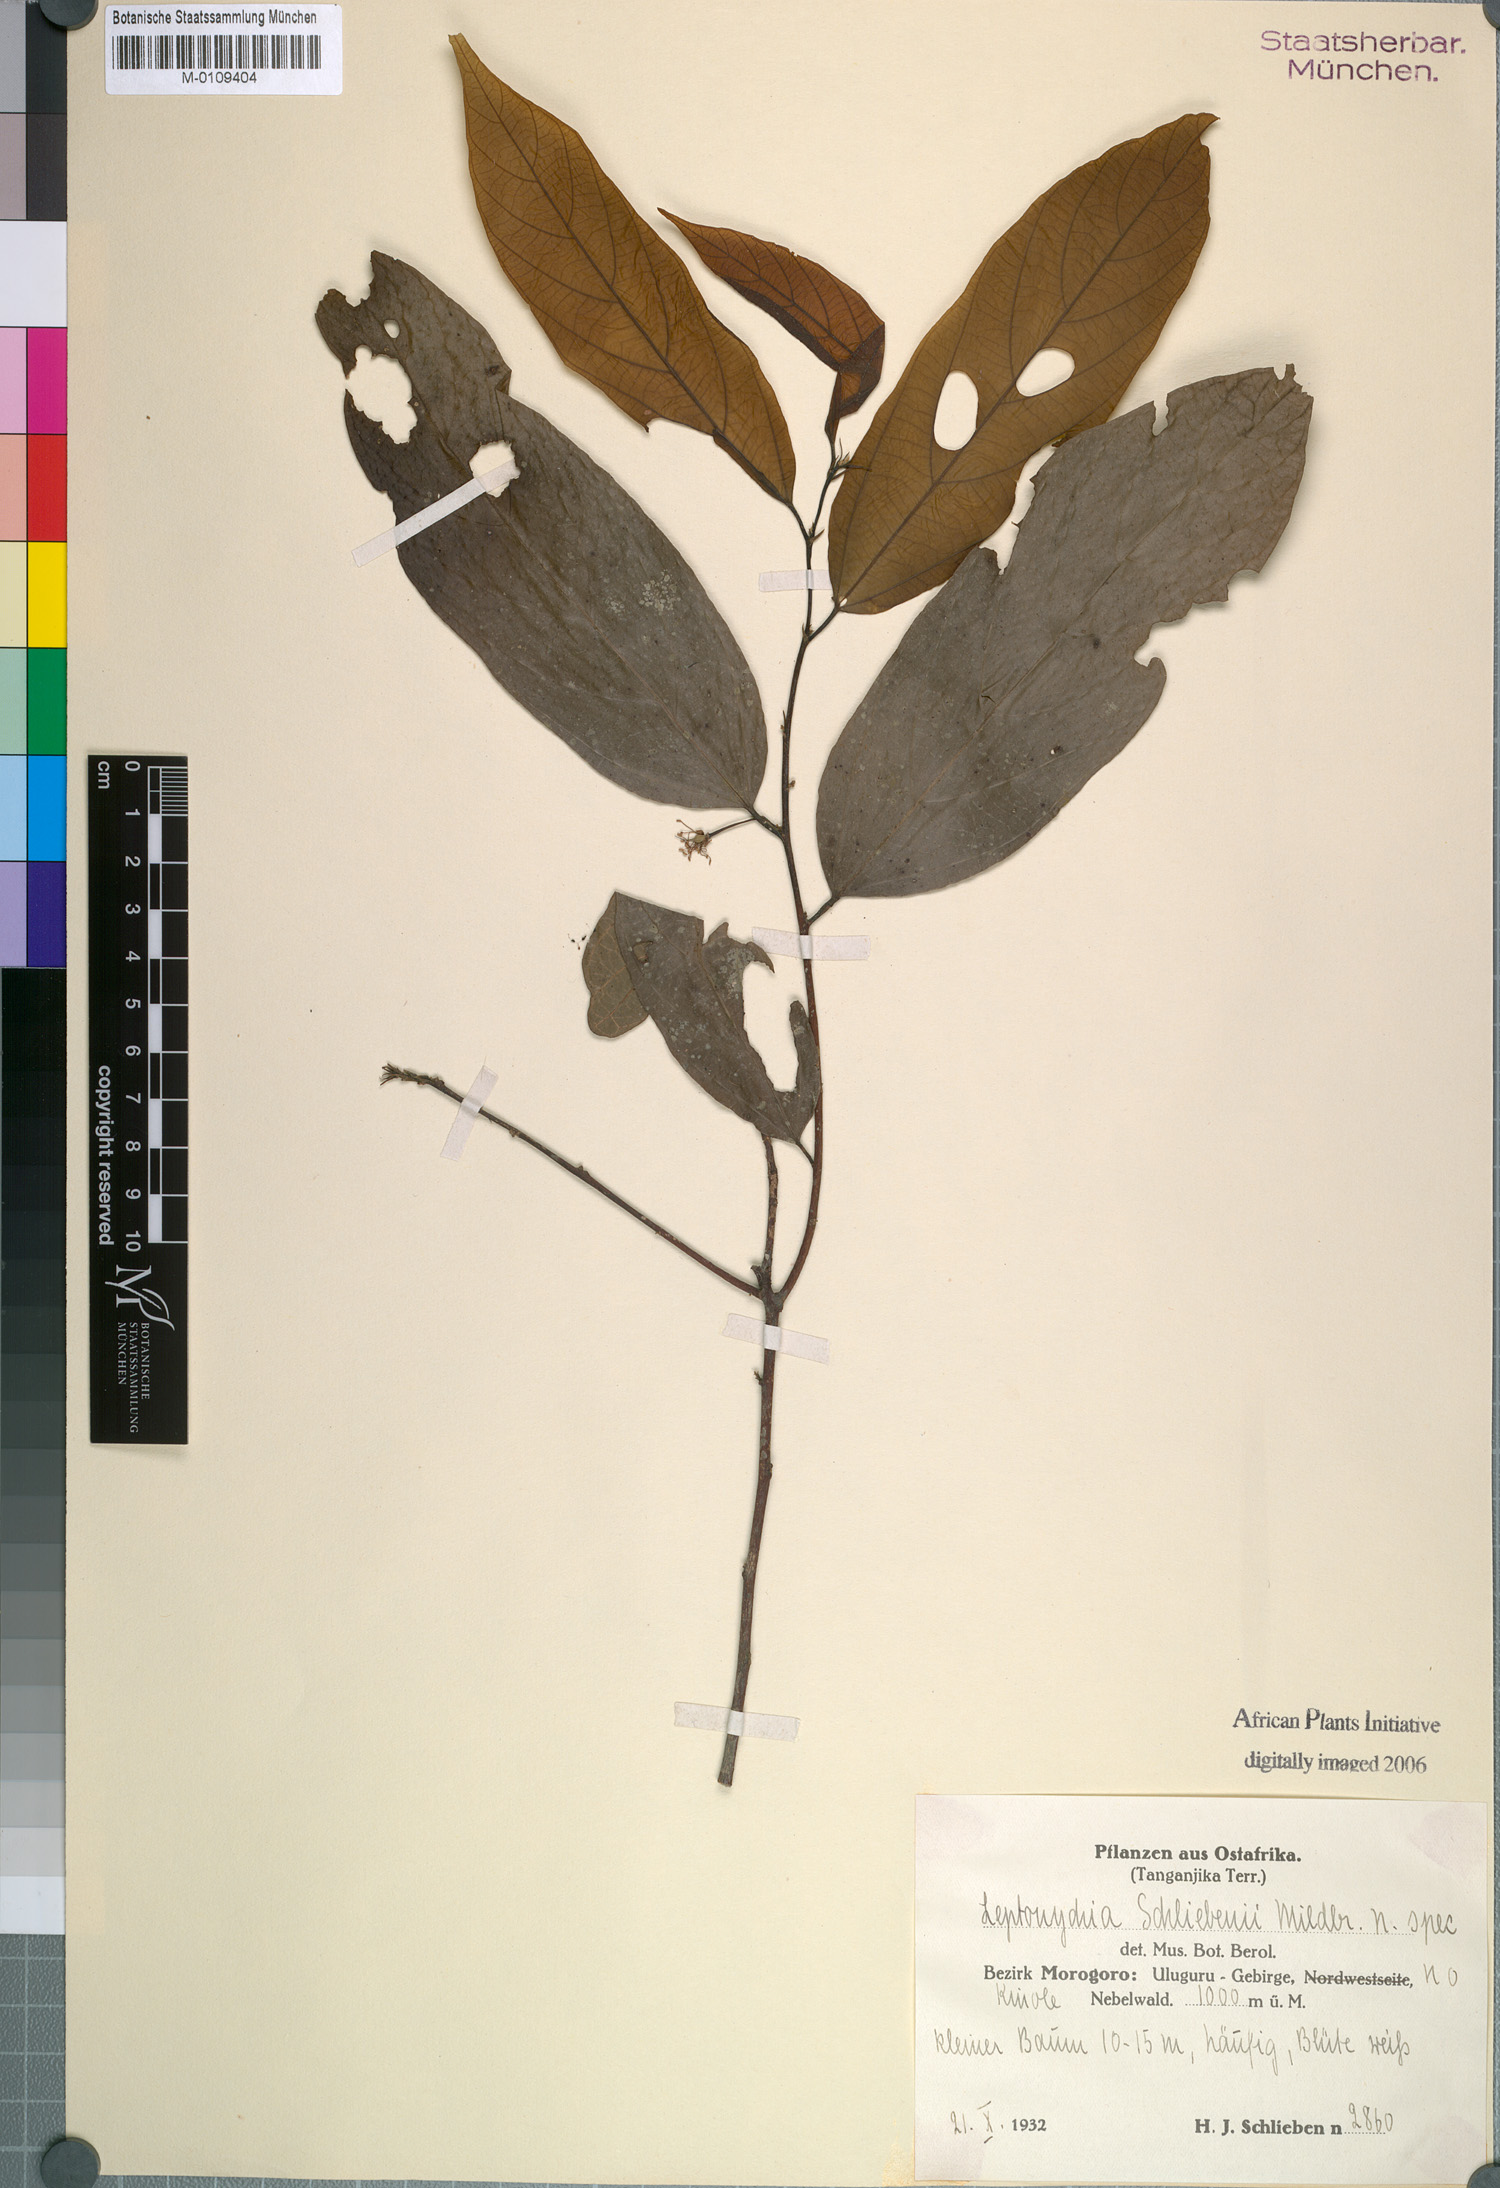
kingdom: Plantae
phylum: Tracheophyta
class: Magnoliopsida
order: Malvales
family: Malvaceae
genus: Leptonychia
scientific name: Leptonychia
